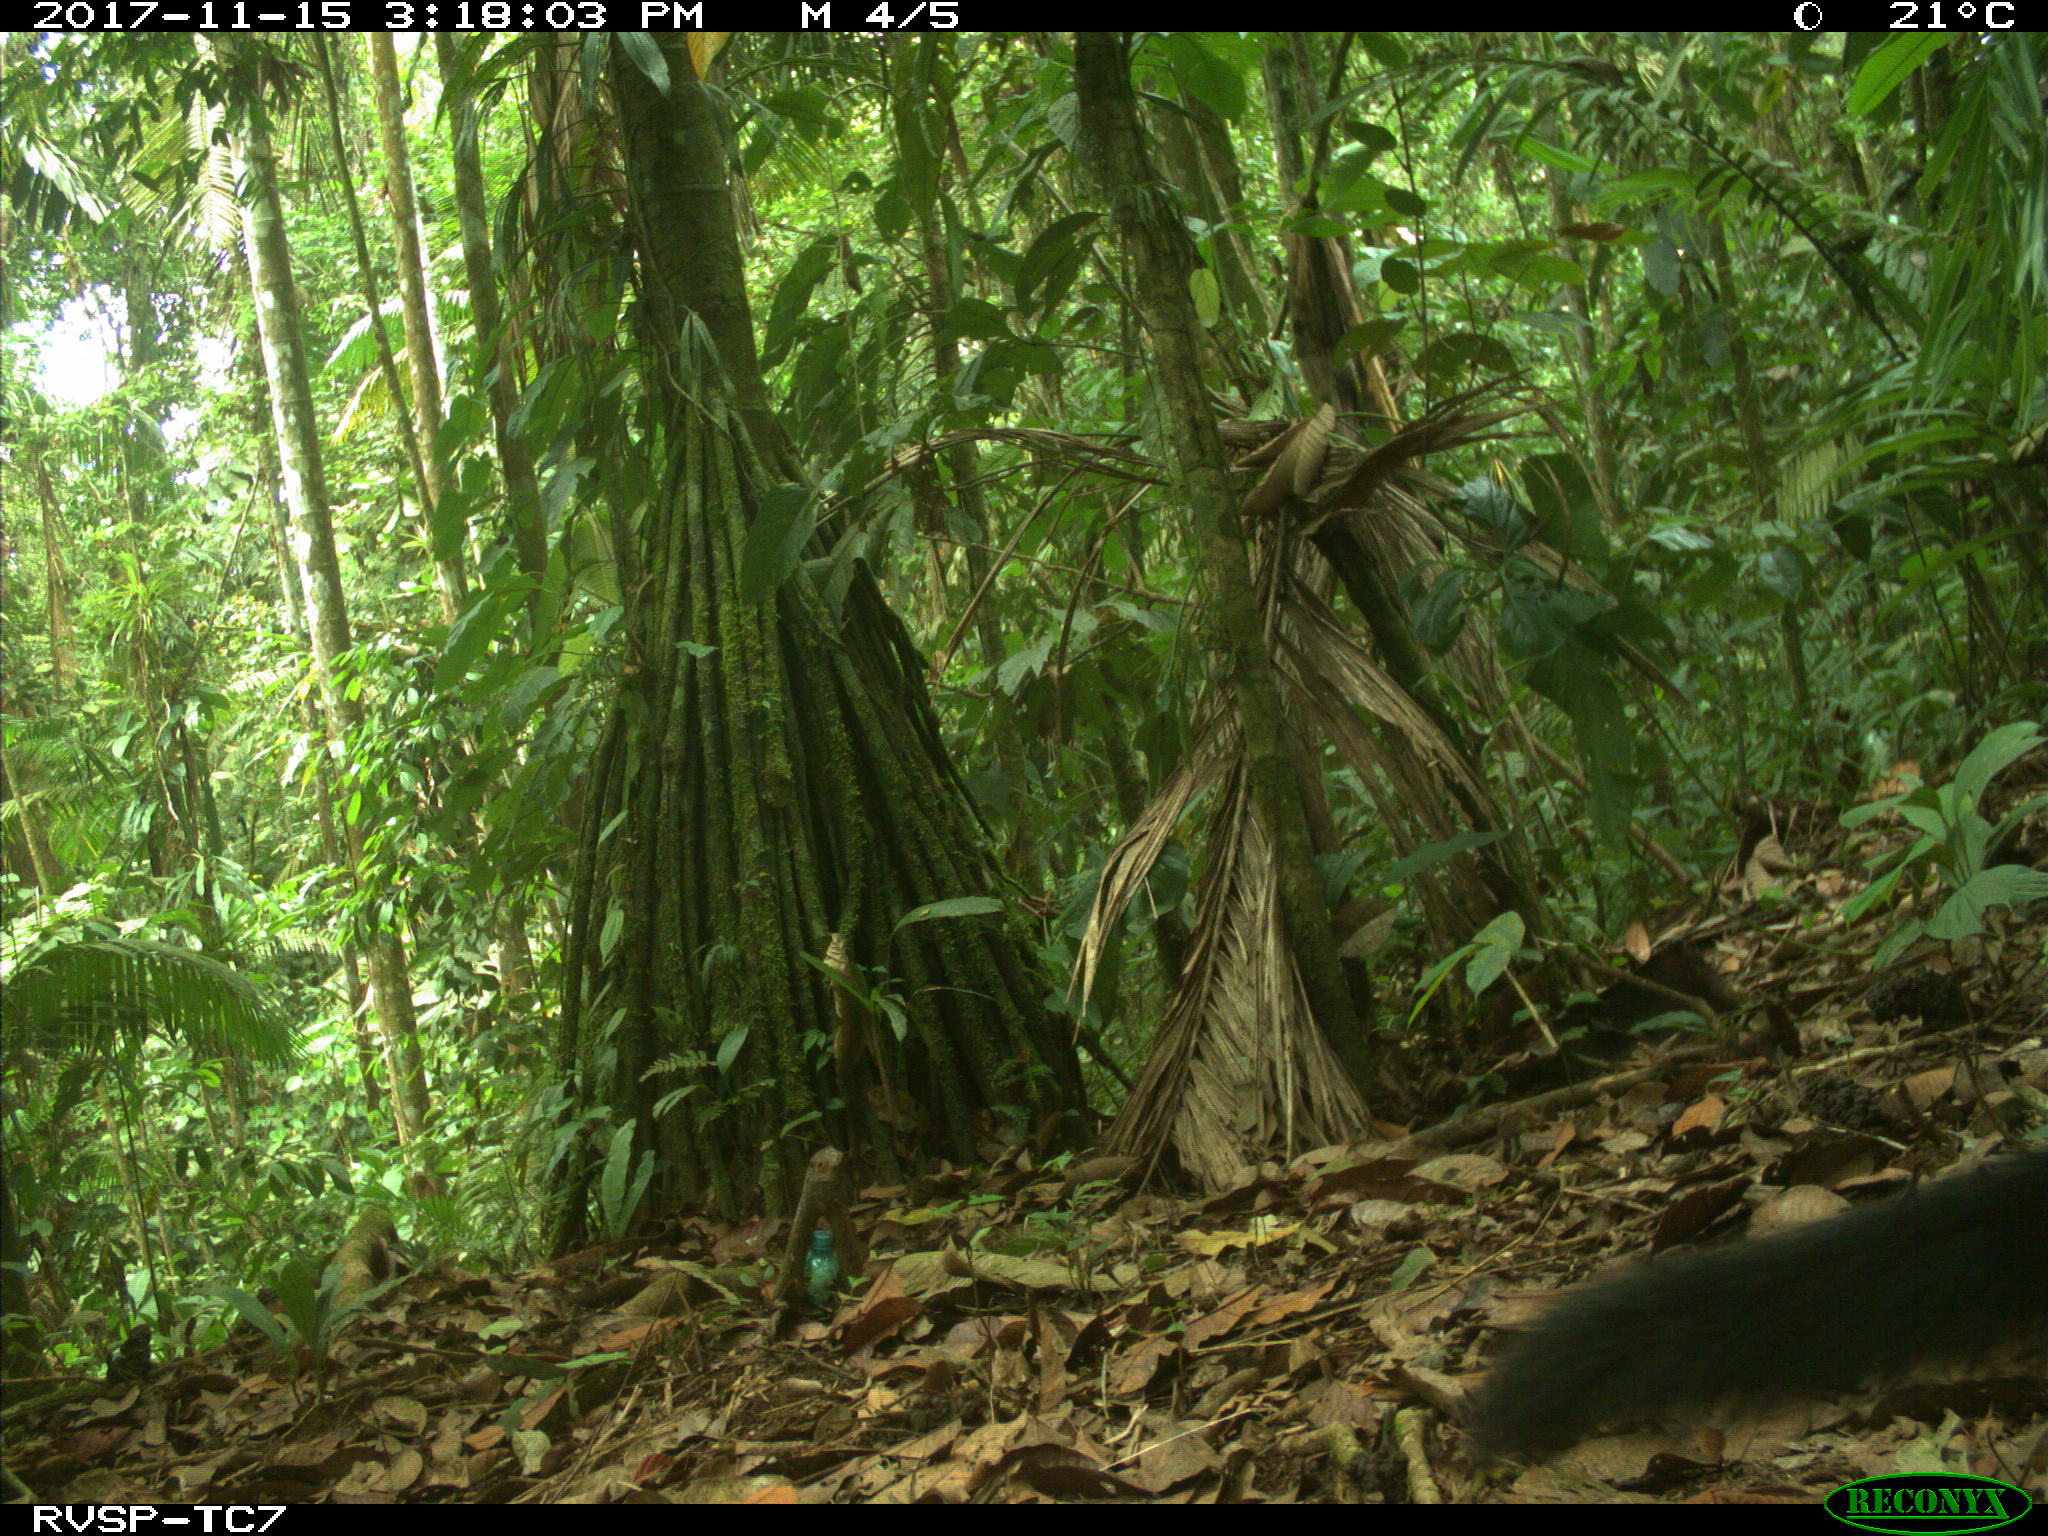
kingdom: Animalia
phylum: Chordata
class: Mammalia
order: Carnivora
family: Mustelidae
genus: Eira
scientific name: Eira barbara
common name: Tayra
